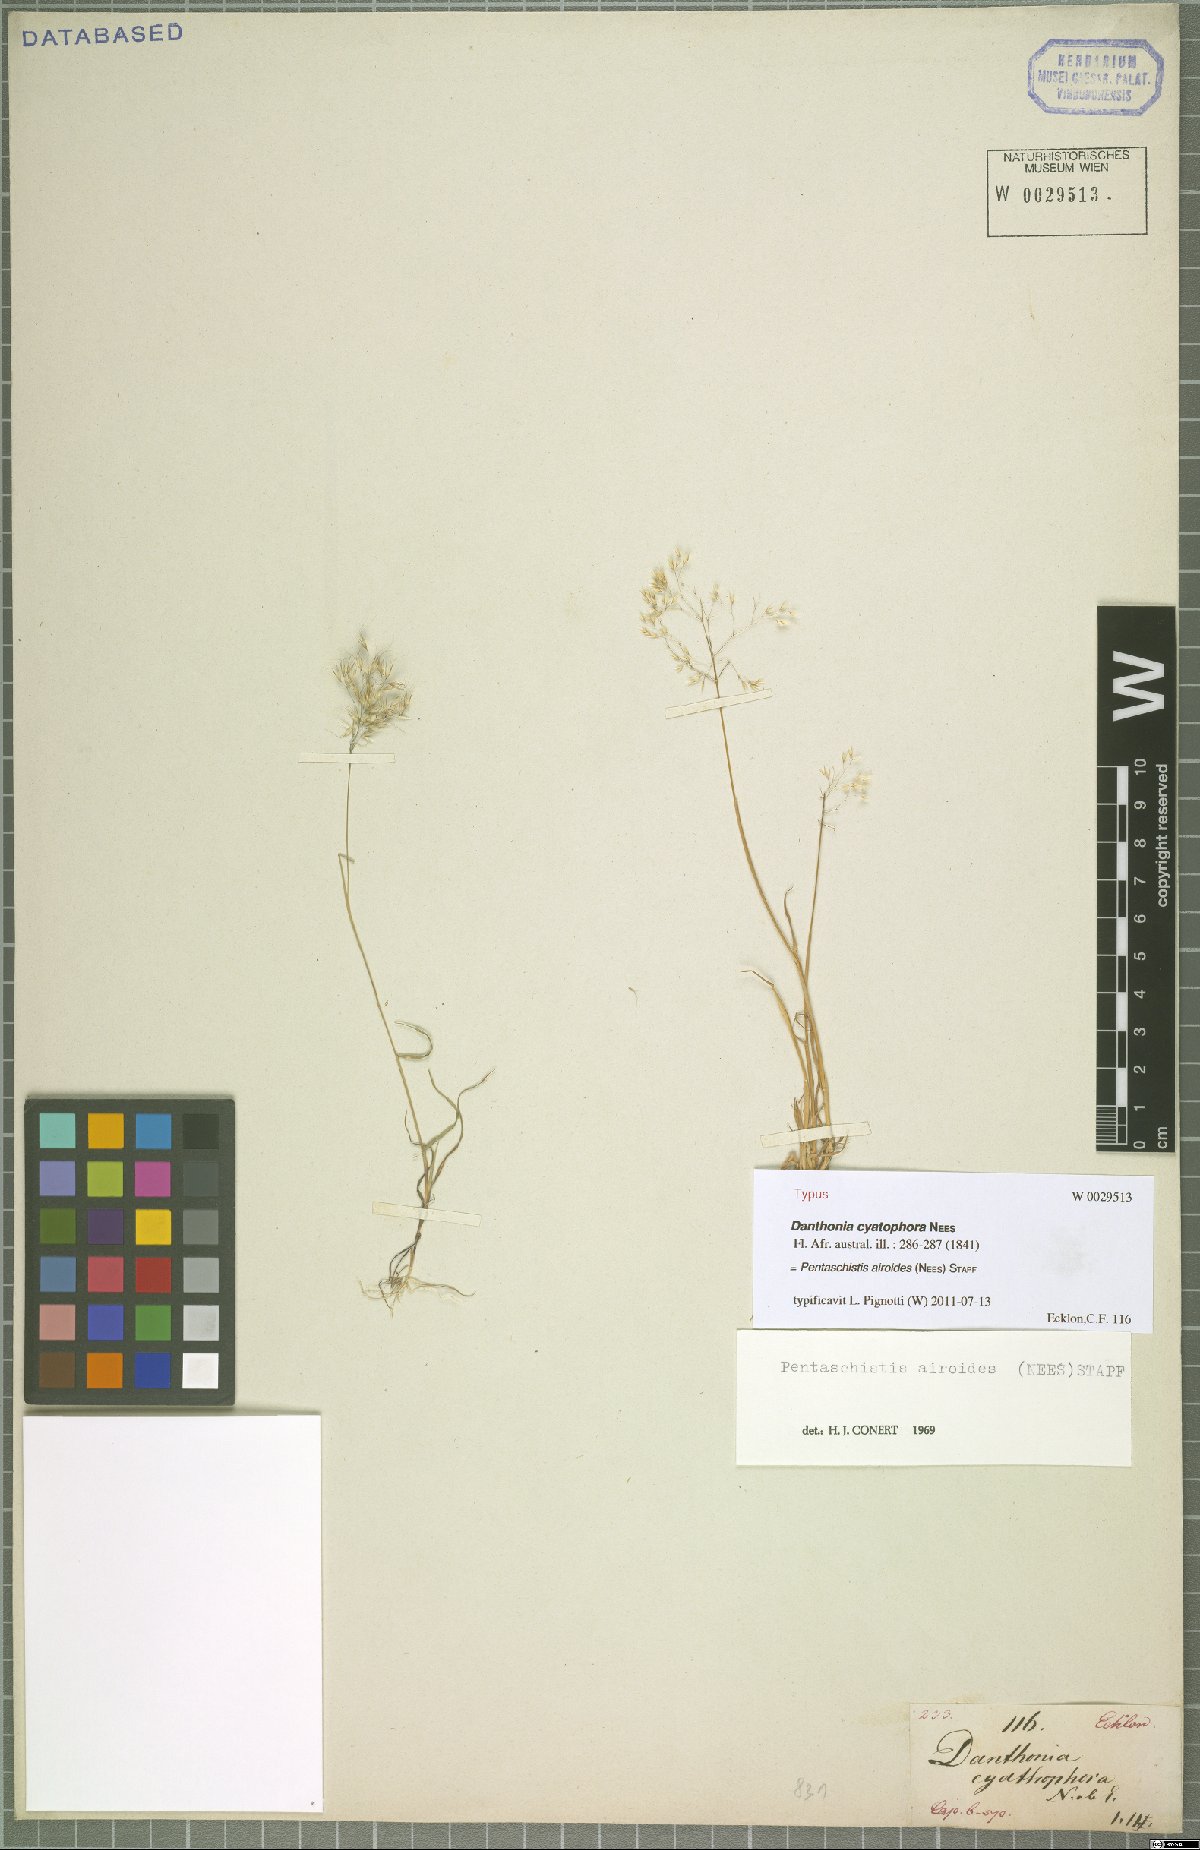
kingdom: Plantae
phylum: Tracheophyta
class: Liliopsida
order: Poales
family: Poaceae
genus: Pentameris
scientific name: Pentameris airoides
